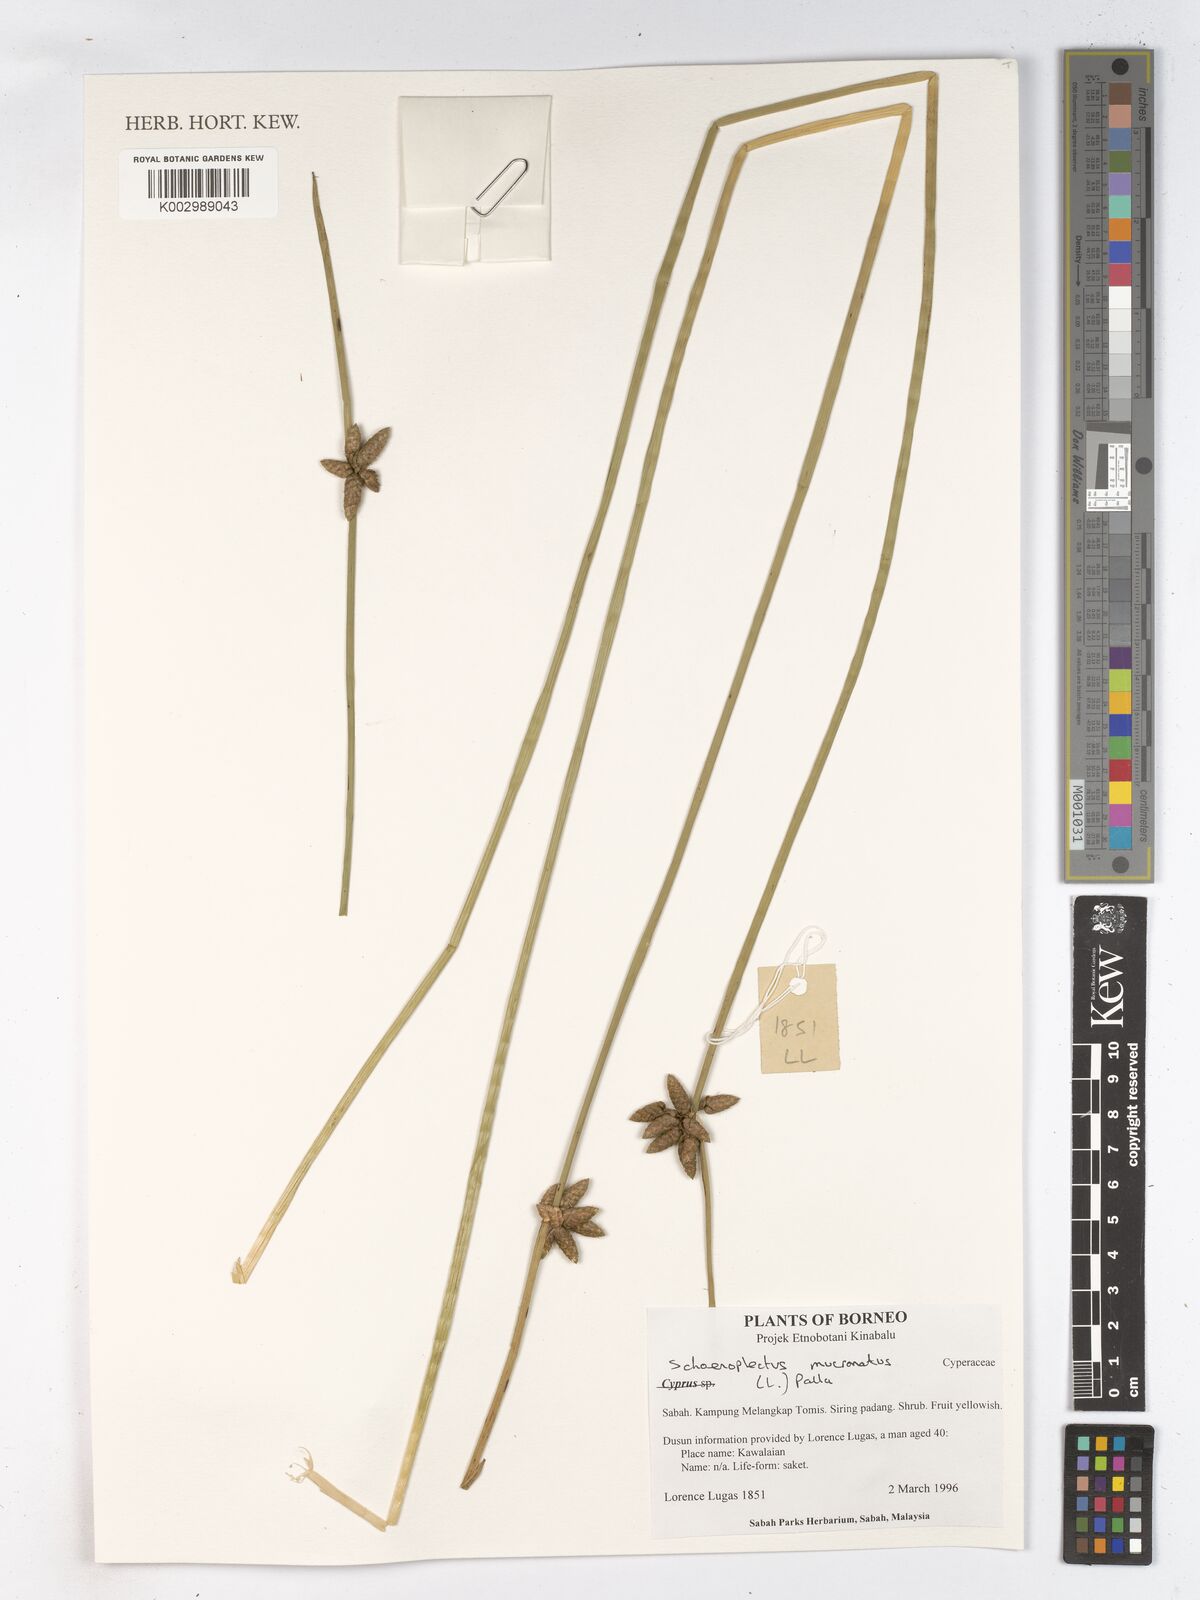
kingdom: Plantae
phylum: Tracheophyta
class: Liliopsida
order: Poales
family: Cyperaceae
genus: Schoenoplectiella
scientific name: Schoenoplectiella mucronata
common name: Bog bulrush
